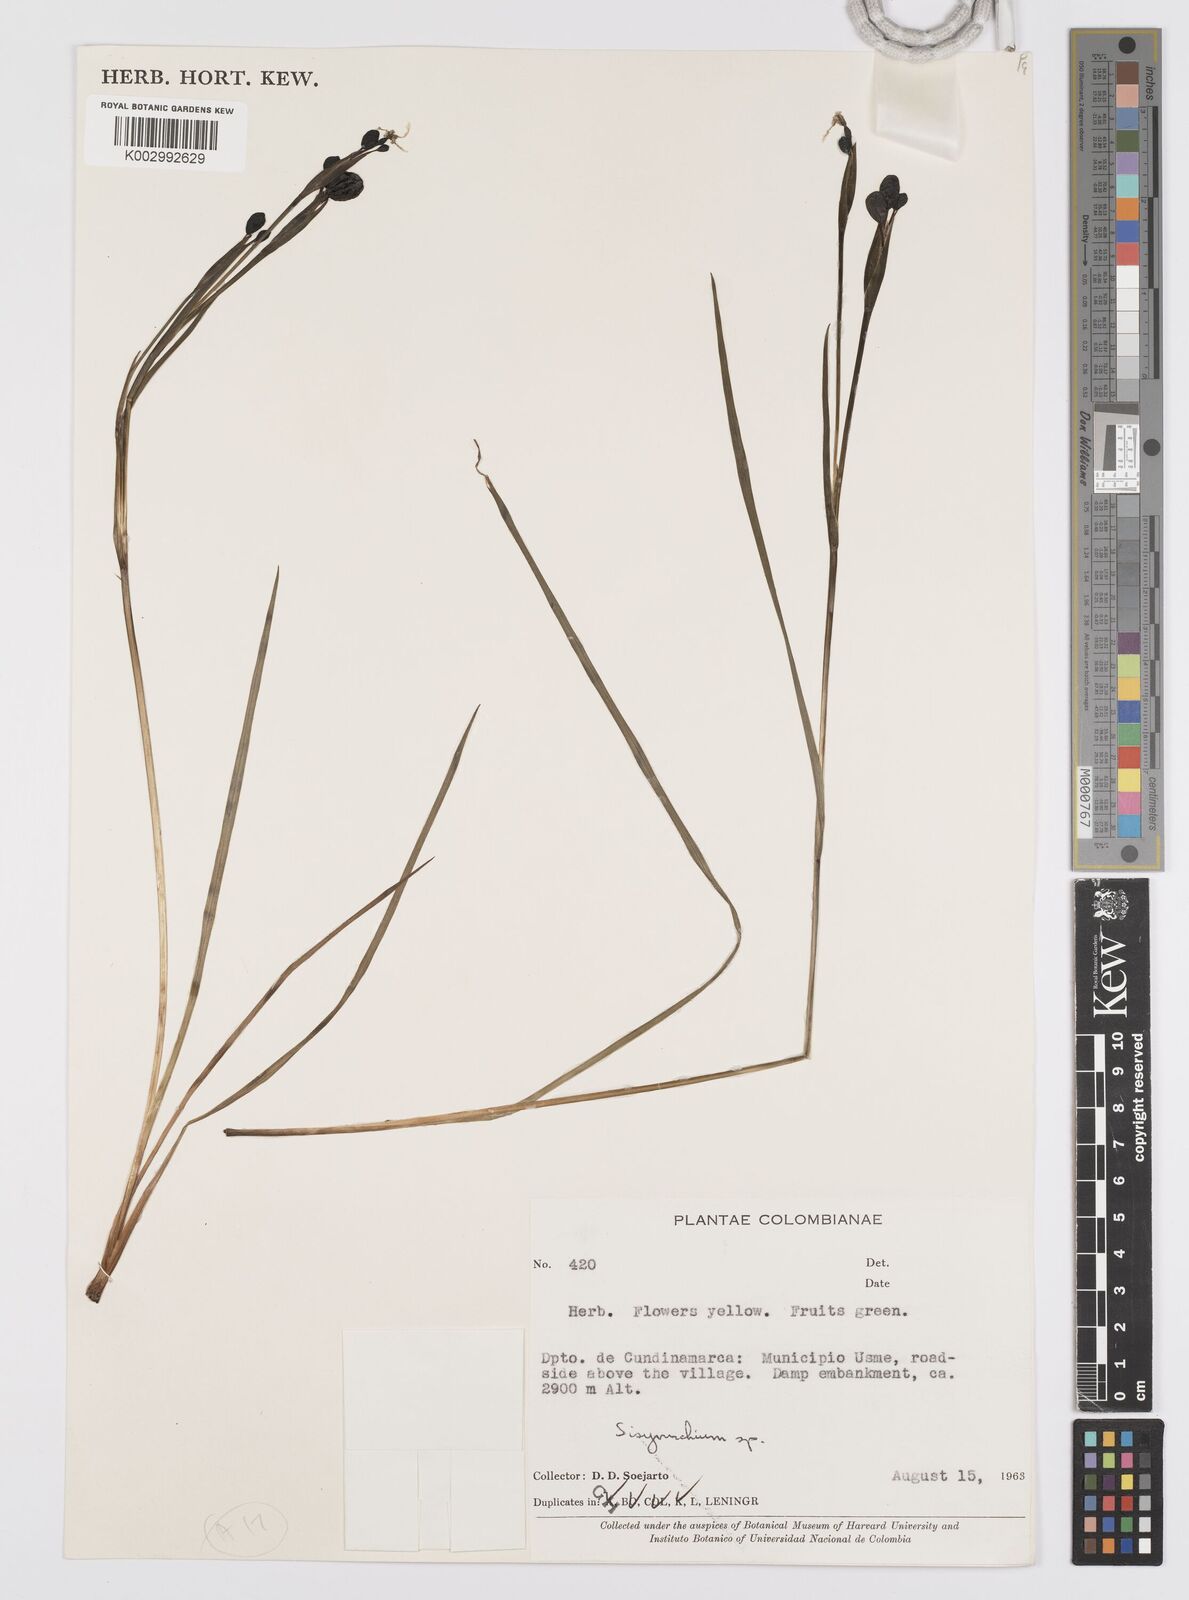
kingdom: Plantae
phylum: Tracheophyta
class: Liliopsida
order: Asparagales
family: Iridaceae
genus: Sisyrinchium
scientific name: Sisyrinchium
